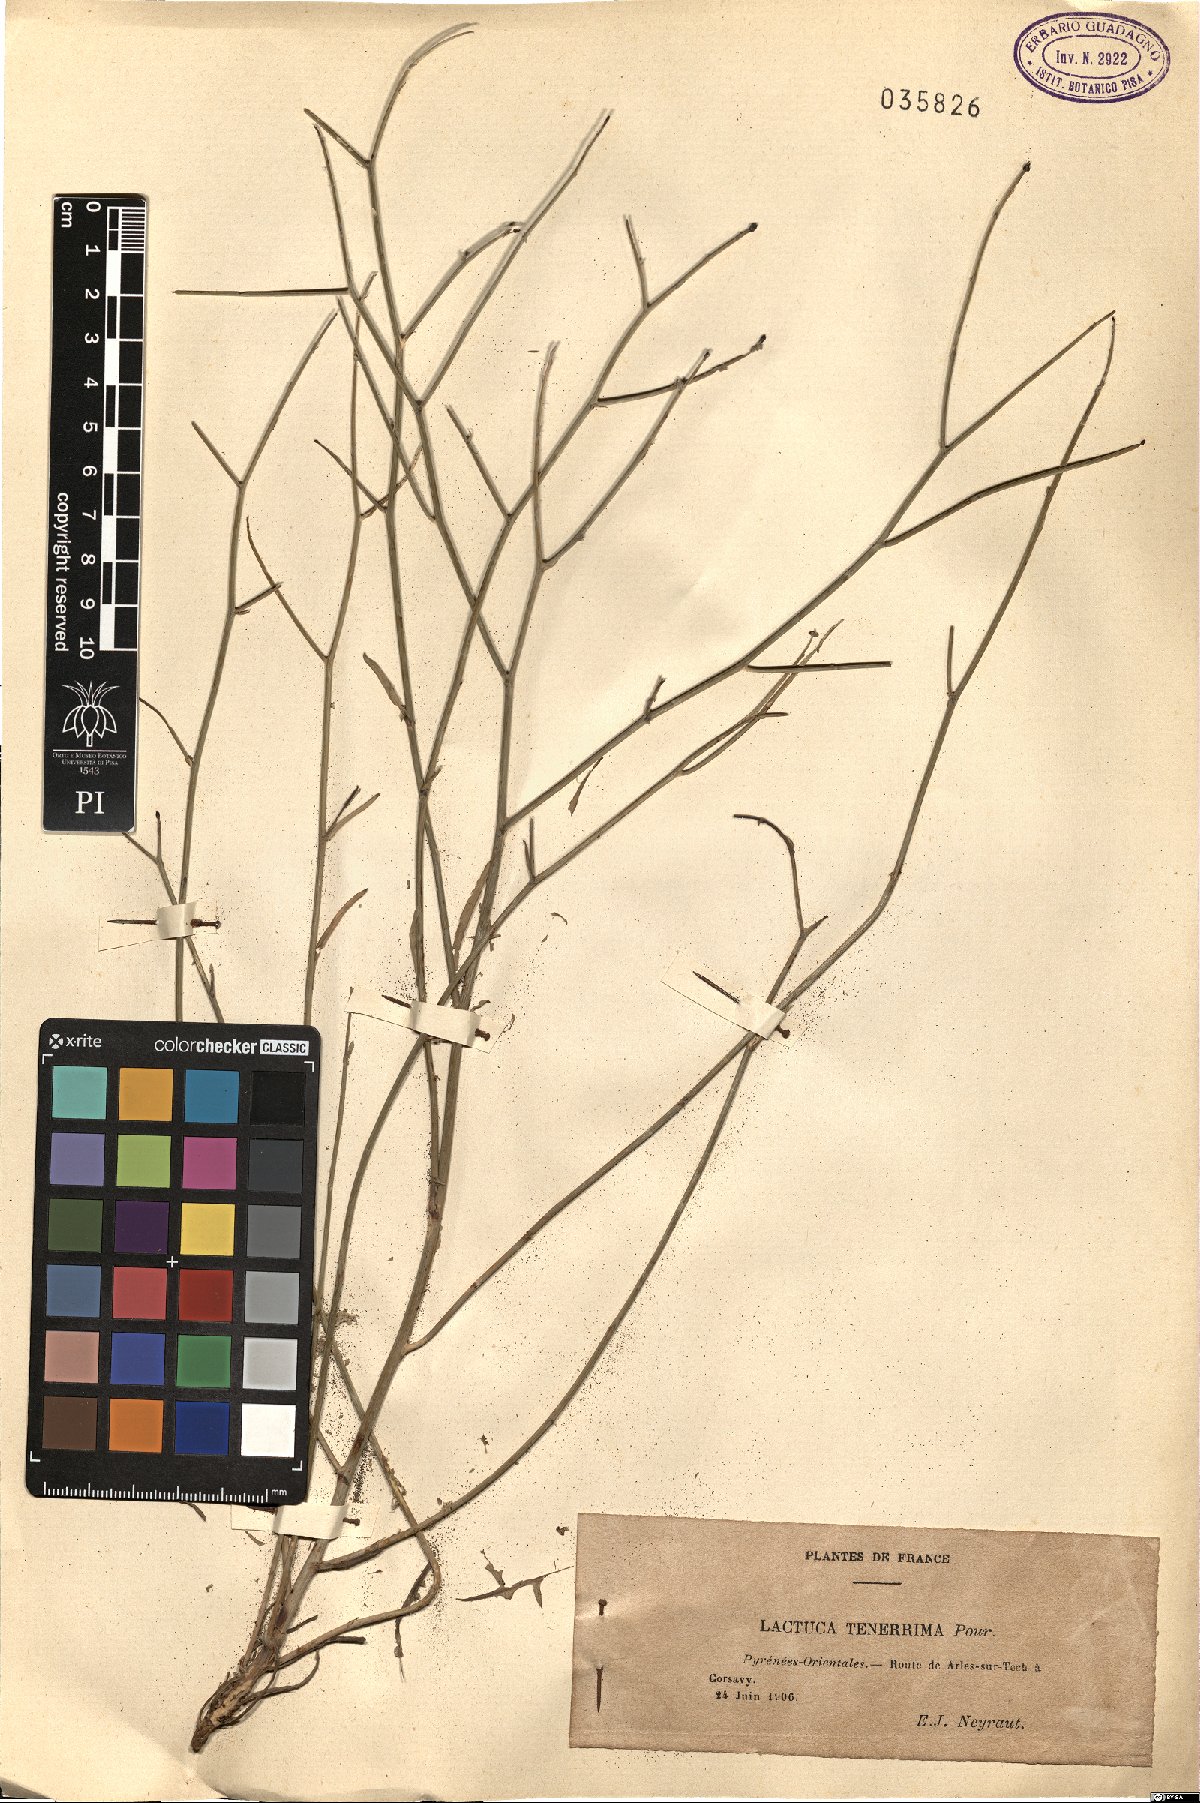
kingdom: Plantae
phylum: Tracheophyta
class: Magnoliopsida
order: Asterales
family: Asteraceae
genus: Lactuca
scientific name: Lactuca tenerrima
